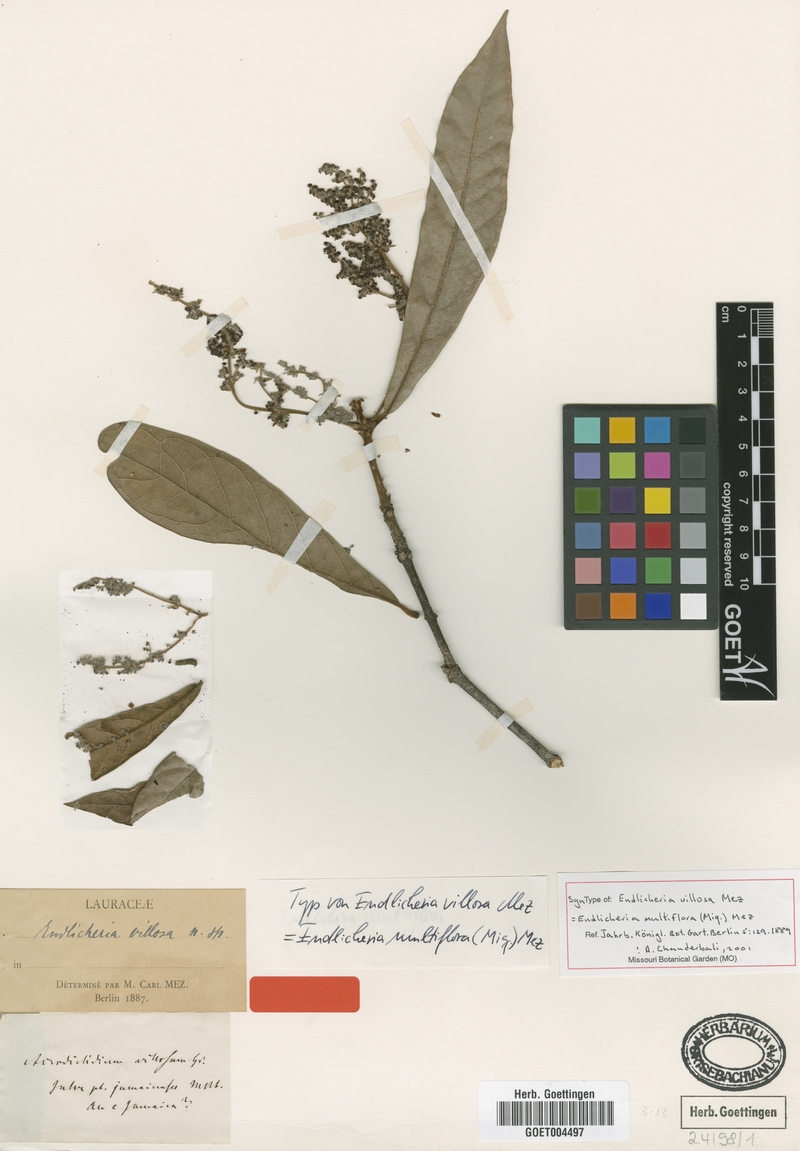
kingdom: Plantae
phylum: Tracheophyta
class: Magnoliopsida
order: Laurales
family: Lauraceae
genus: Endlicheria
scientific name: Endlicheria multiflora
